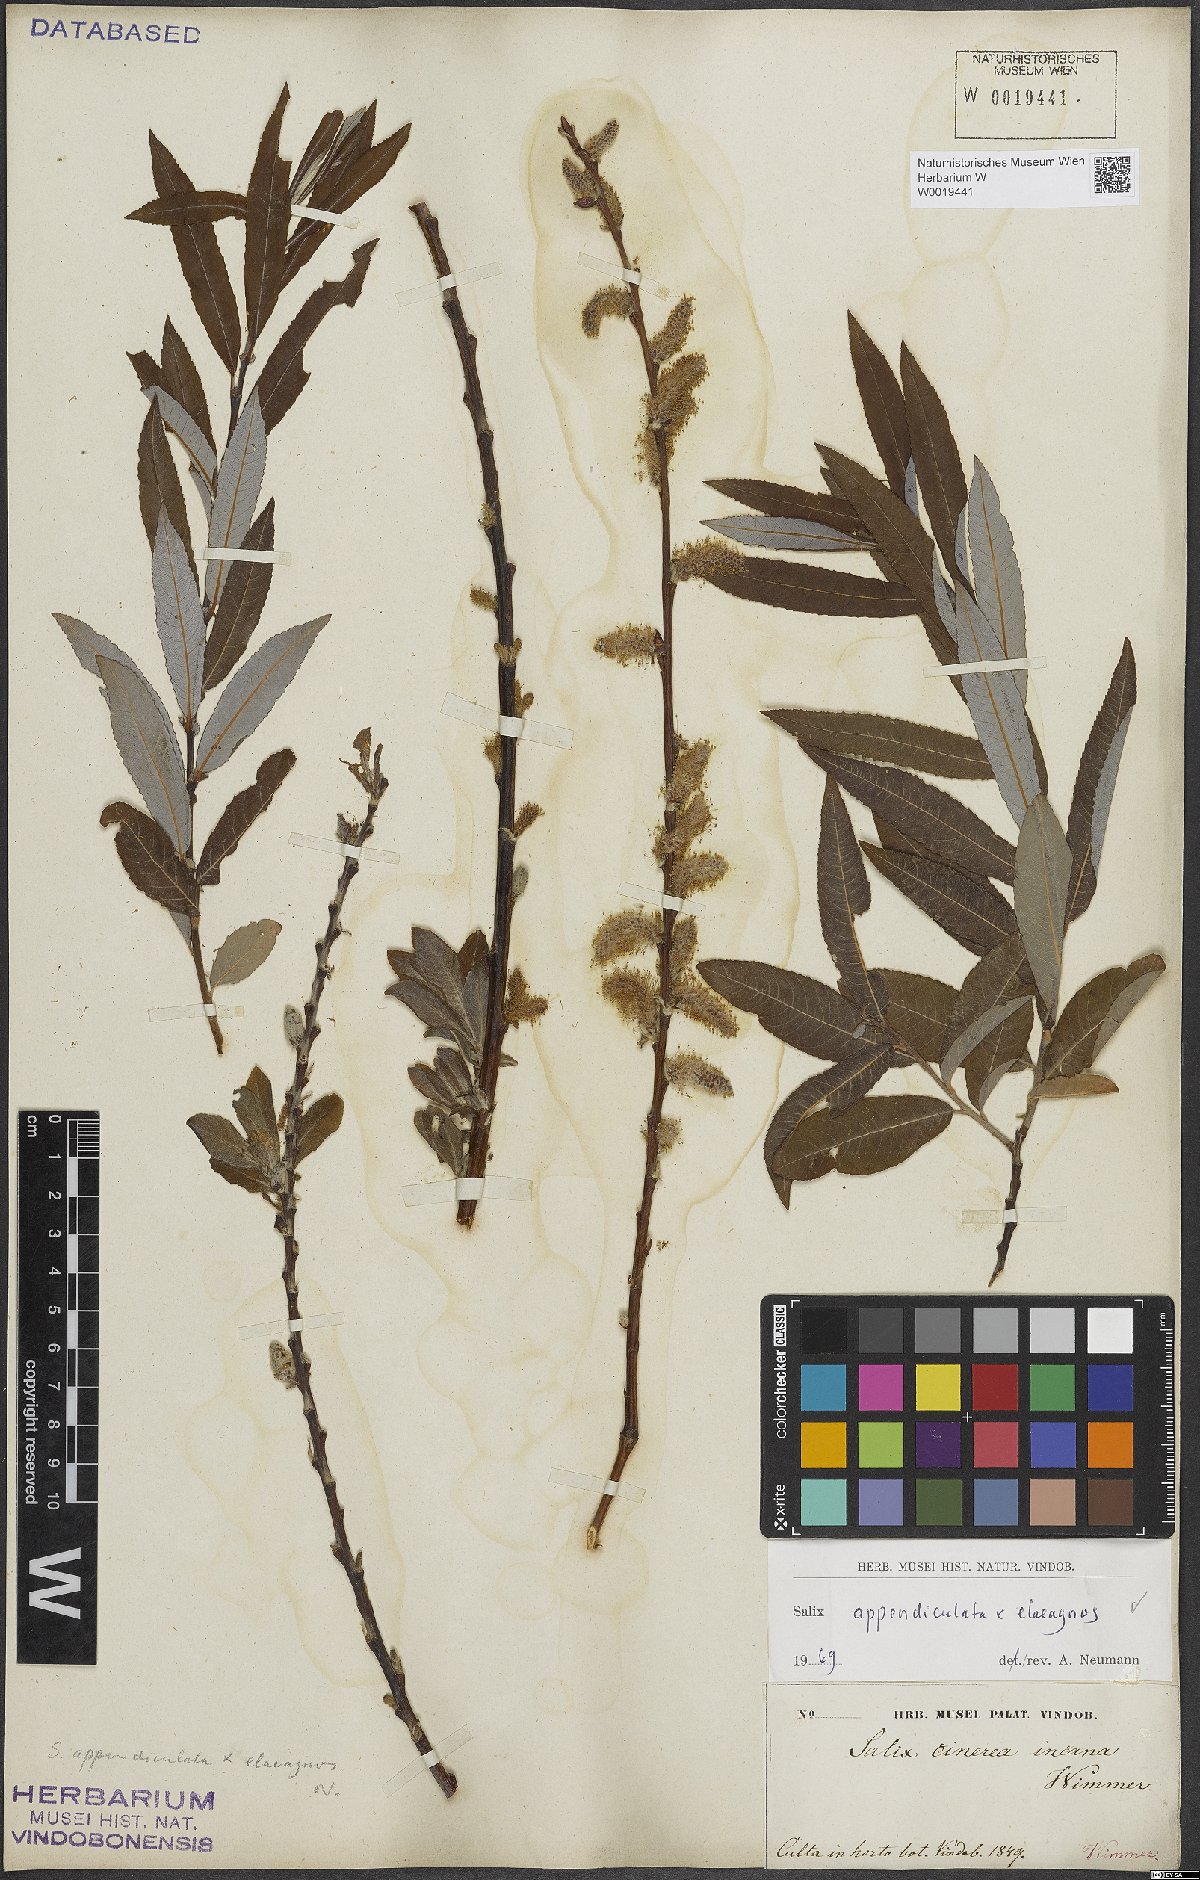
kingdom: Plantae
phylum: Tracheophyta
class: Magnoliopsida
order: Malpighiales
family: Salicaceae
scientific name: Salicaceae
